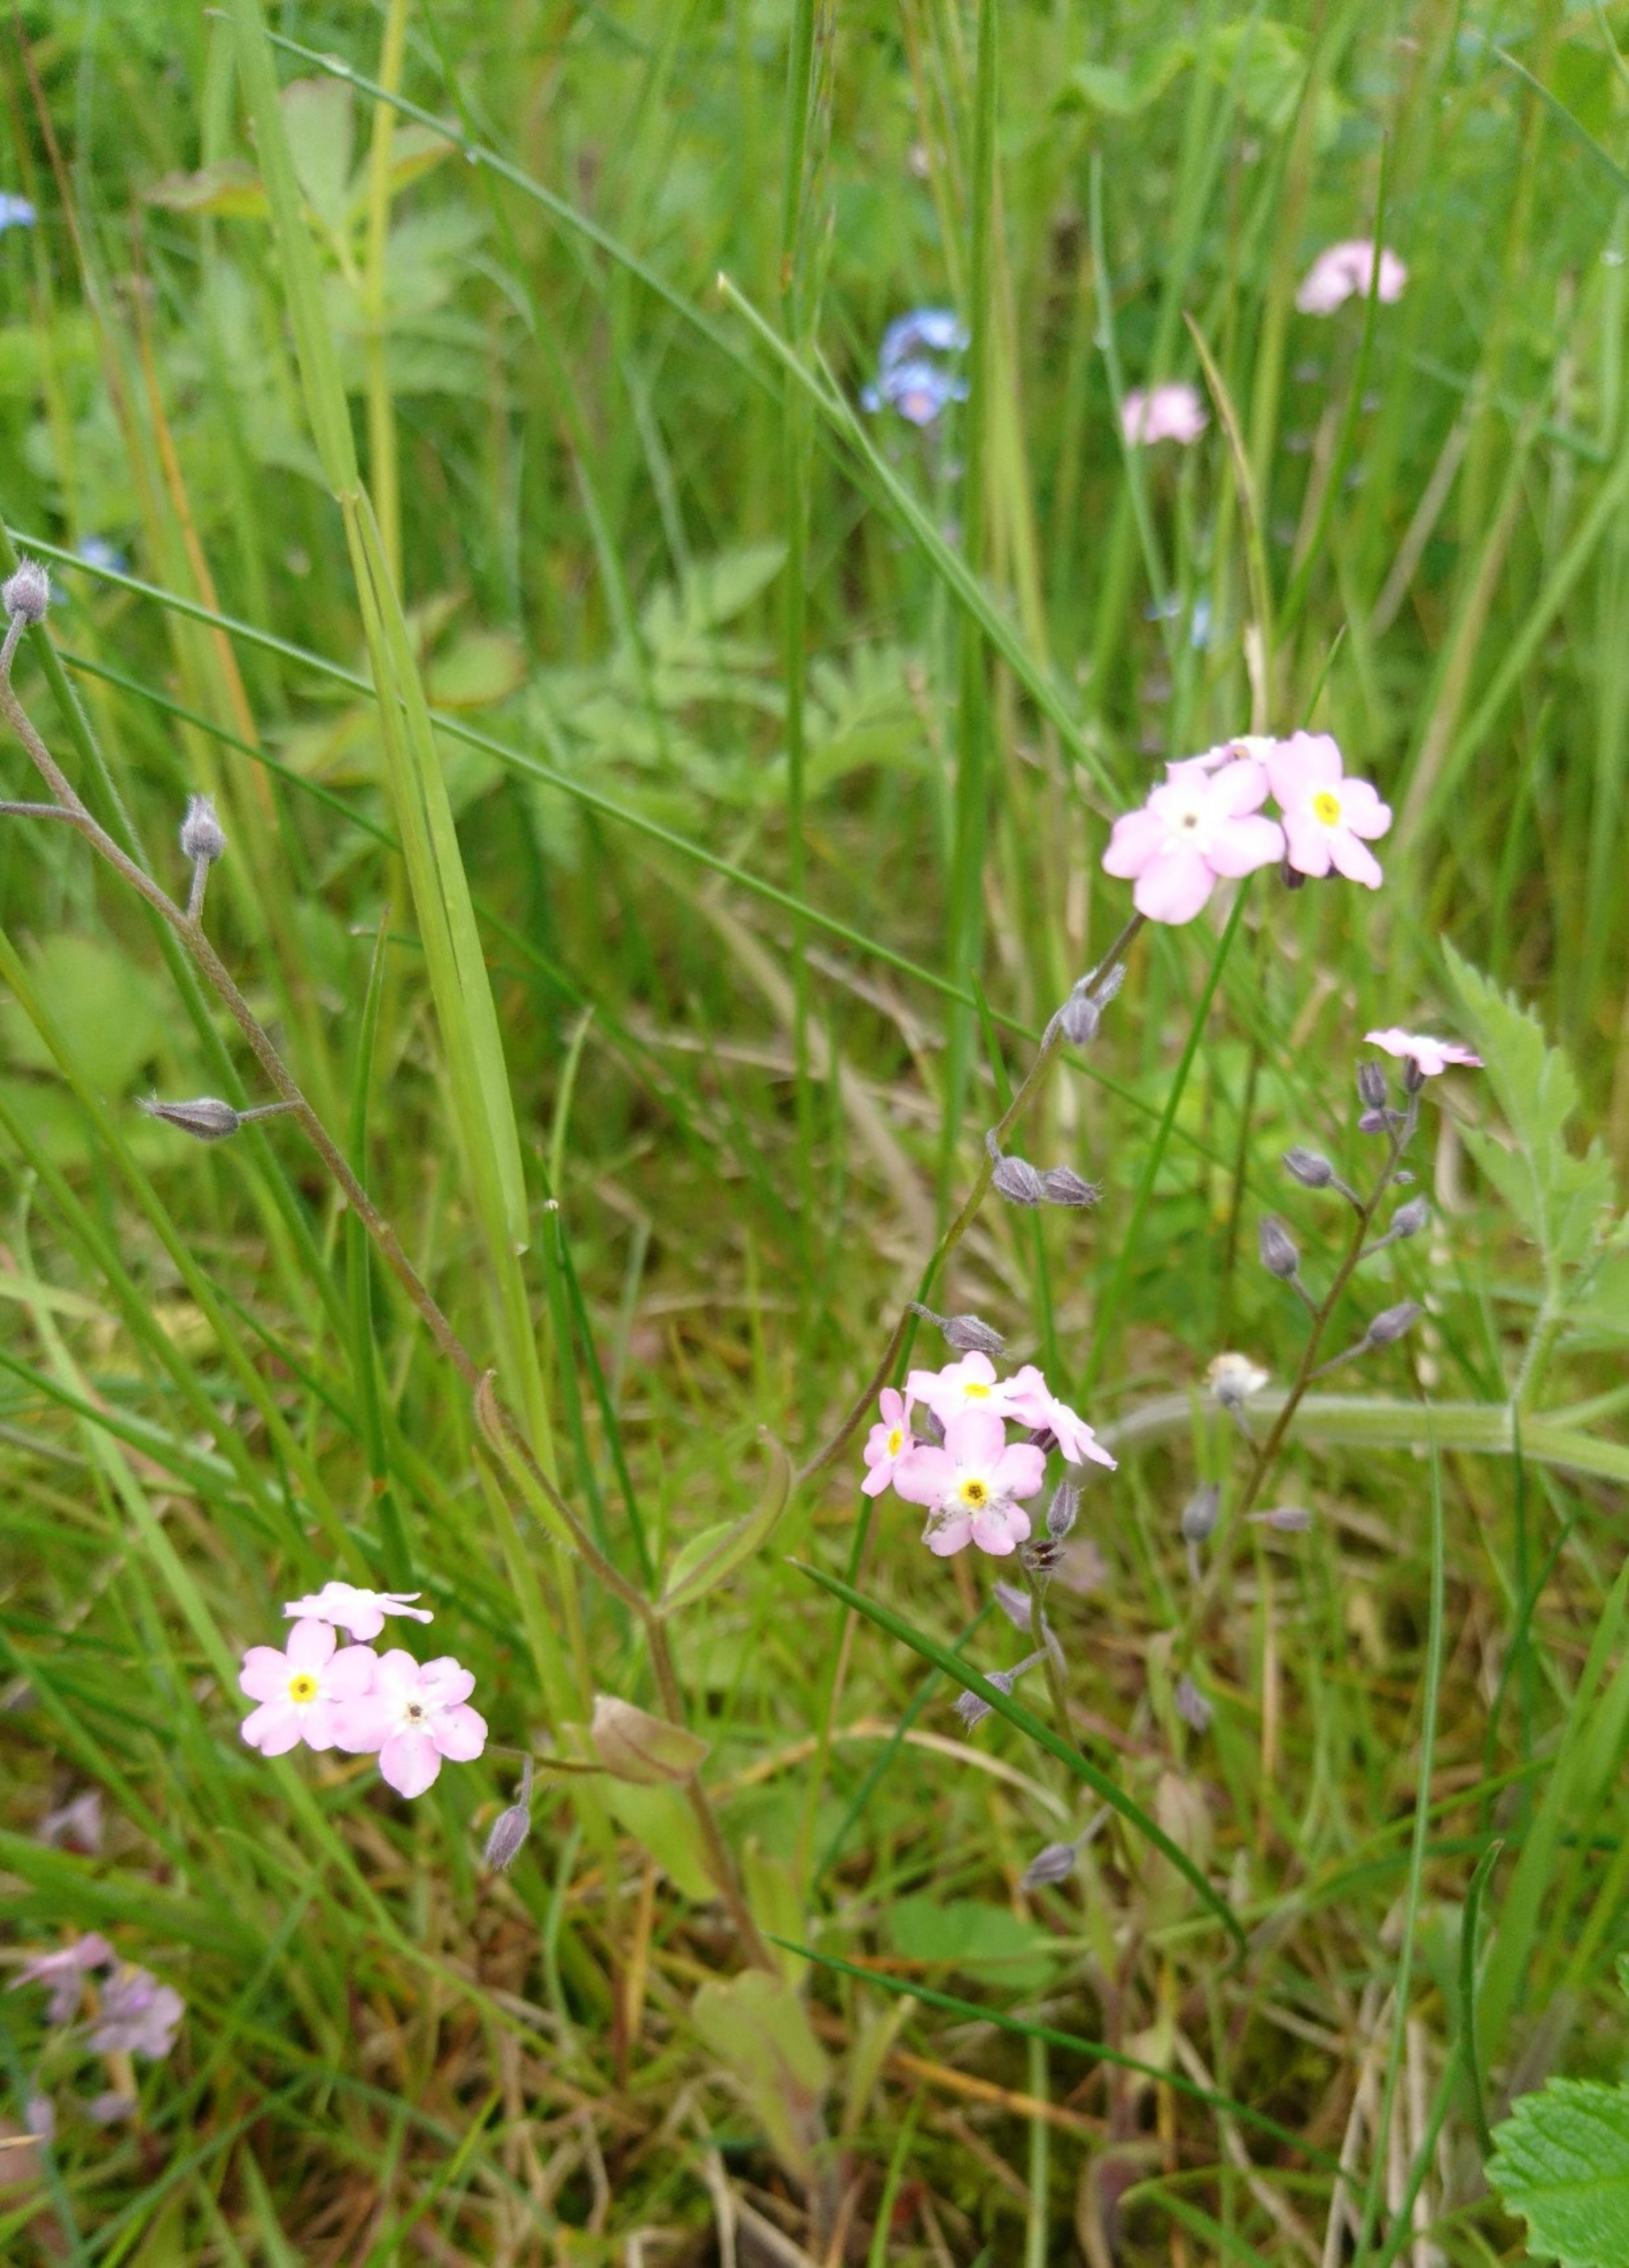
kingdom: Plantae
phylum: Tracheophyta
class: Magnoliopsida
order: Boraginales
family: Boraginaceae
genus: Myosotis
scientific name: Myosotis sylvatica
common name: Skov-forglemmigej
